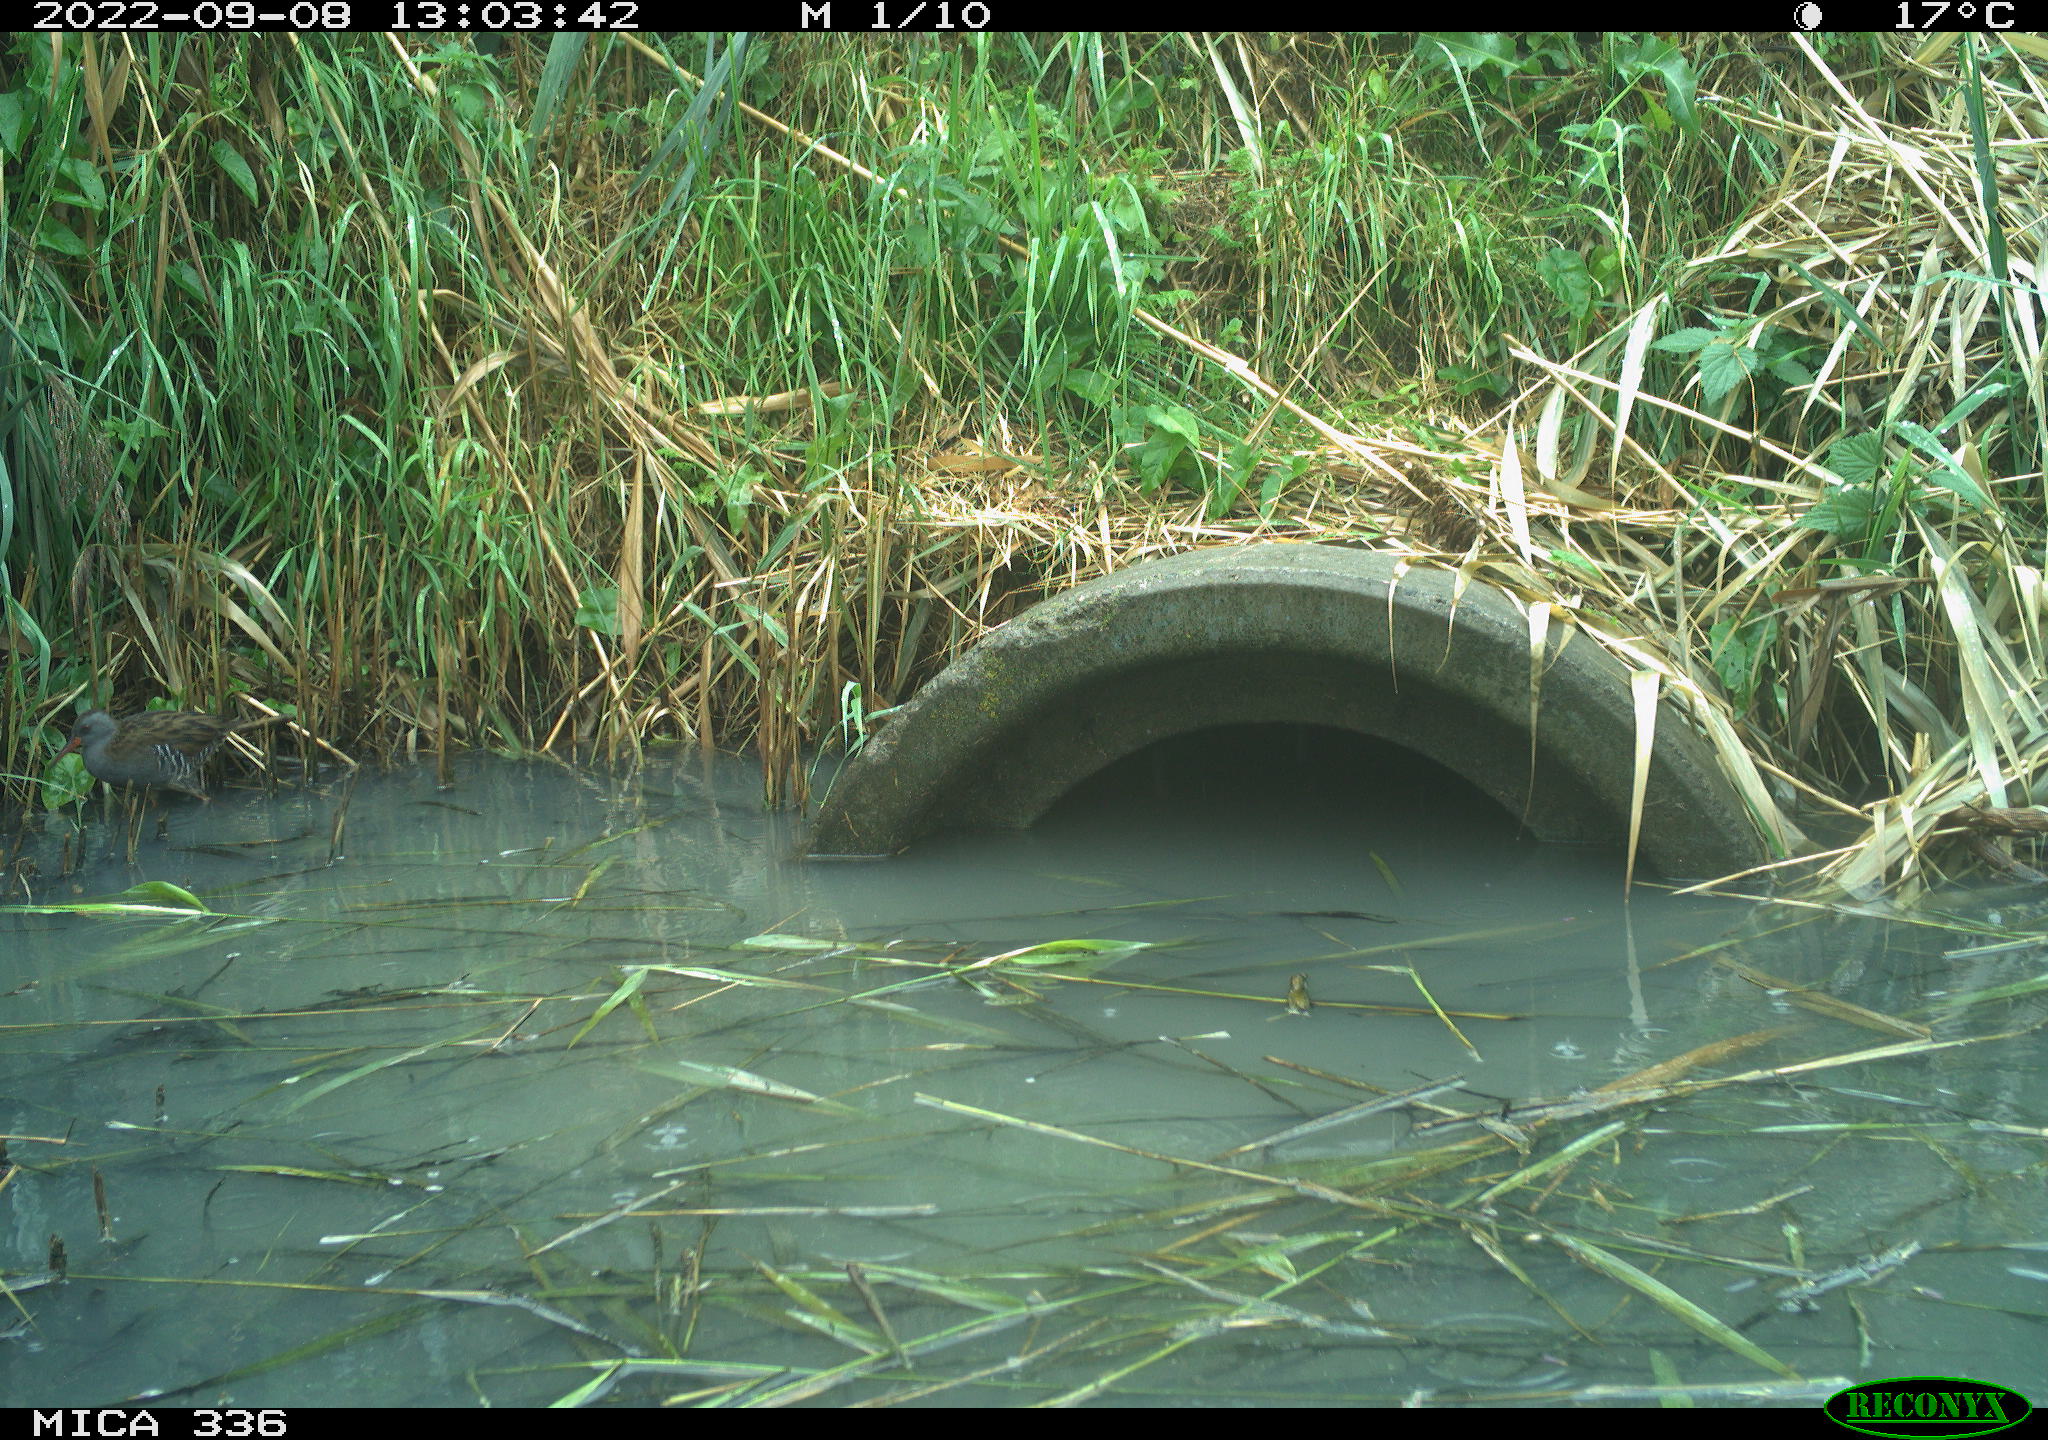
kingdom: Animalia
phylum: Chordata
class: Aves
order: Gruiformes
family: Rallidae
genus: Rallus
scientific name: Rallus aquaticus
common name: Water rail
